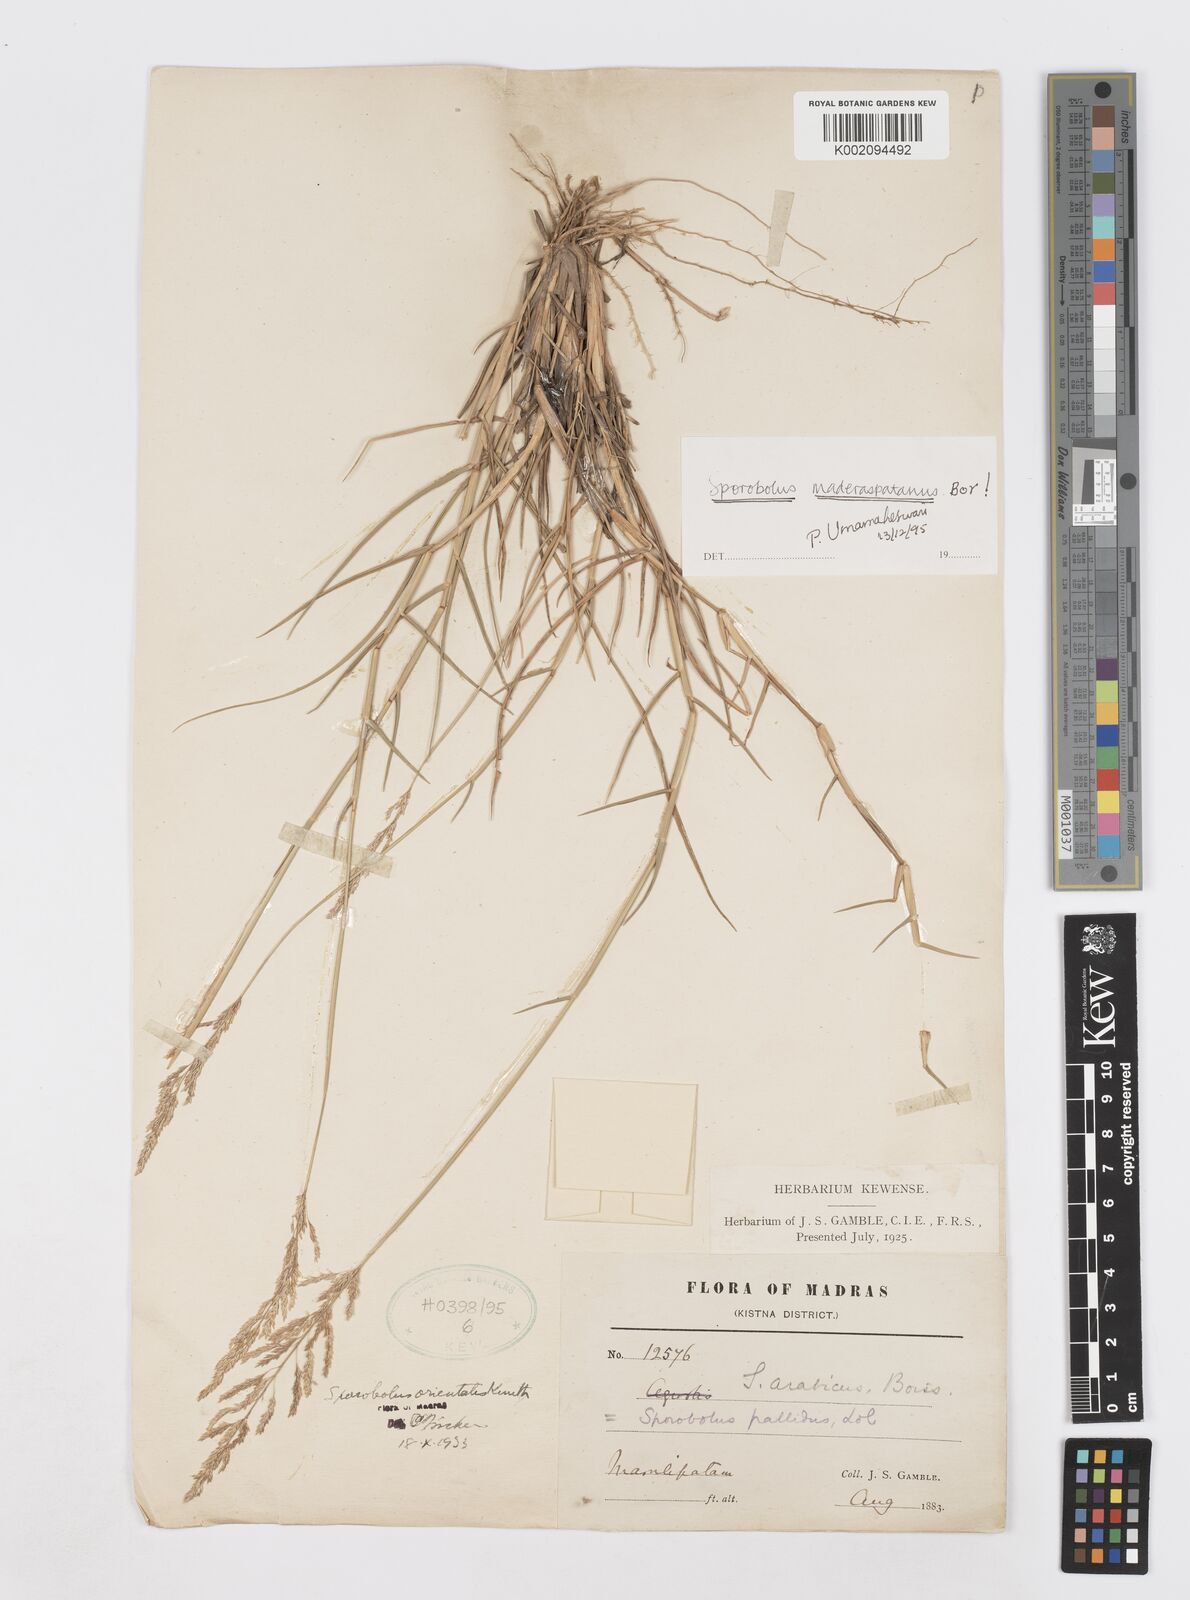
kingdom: Plantae
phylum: Tracheophyta
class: Liliopsida
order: Poales
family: Poaceae
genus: Sporobolus
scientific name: Sporobolus maderaspatanus
